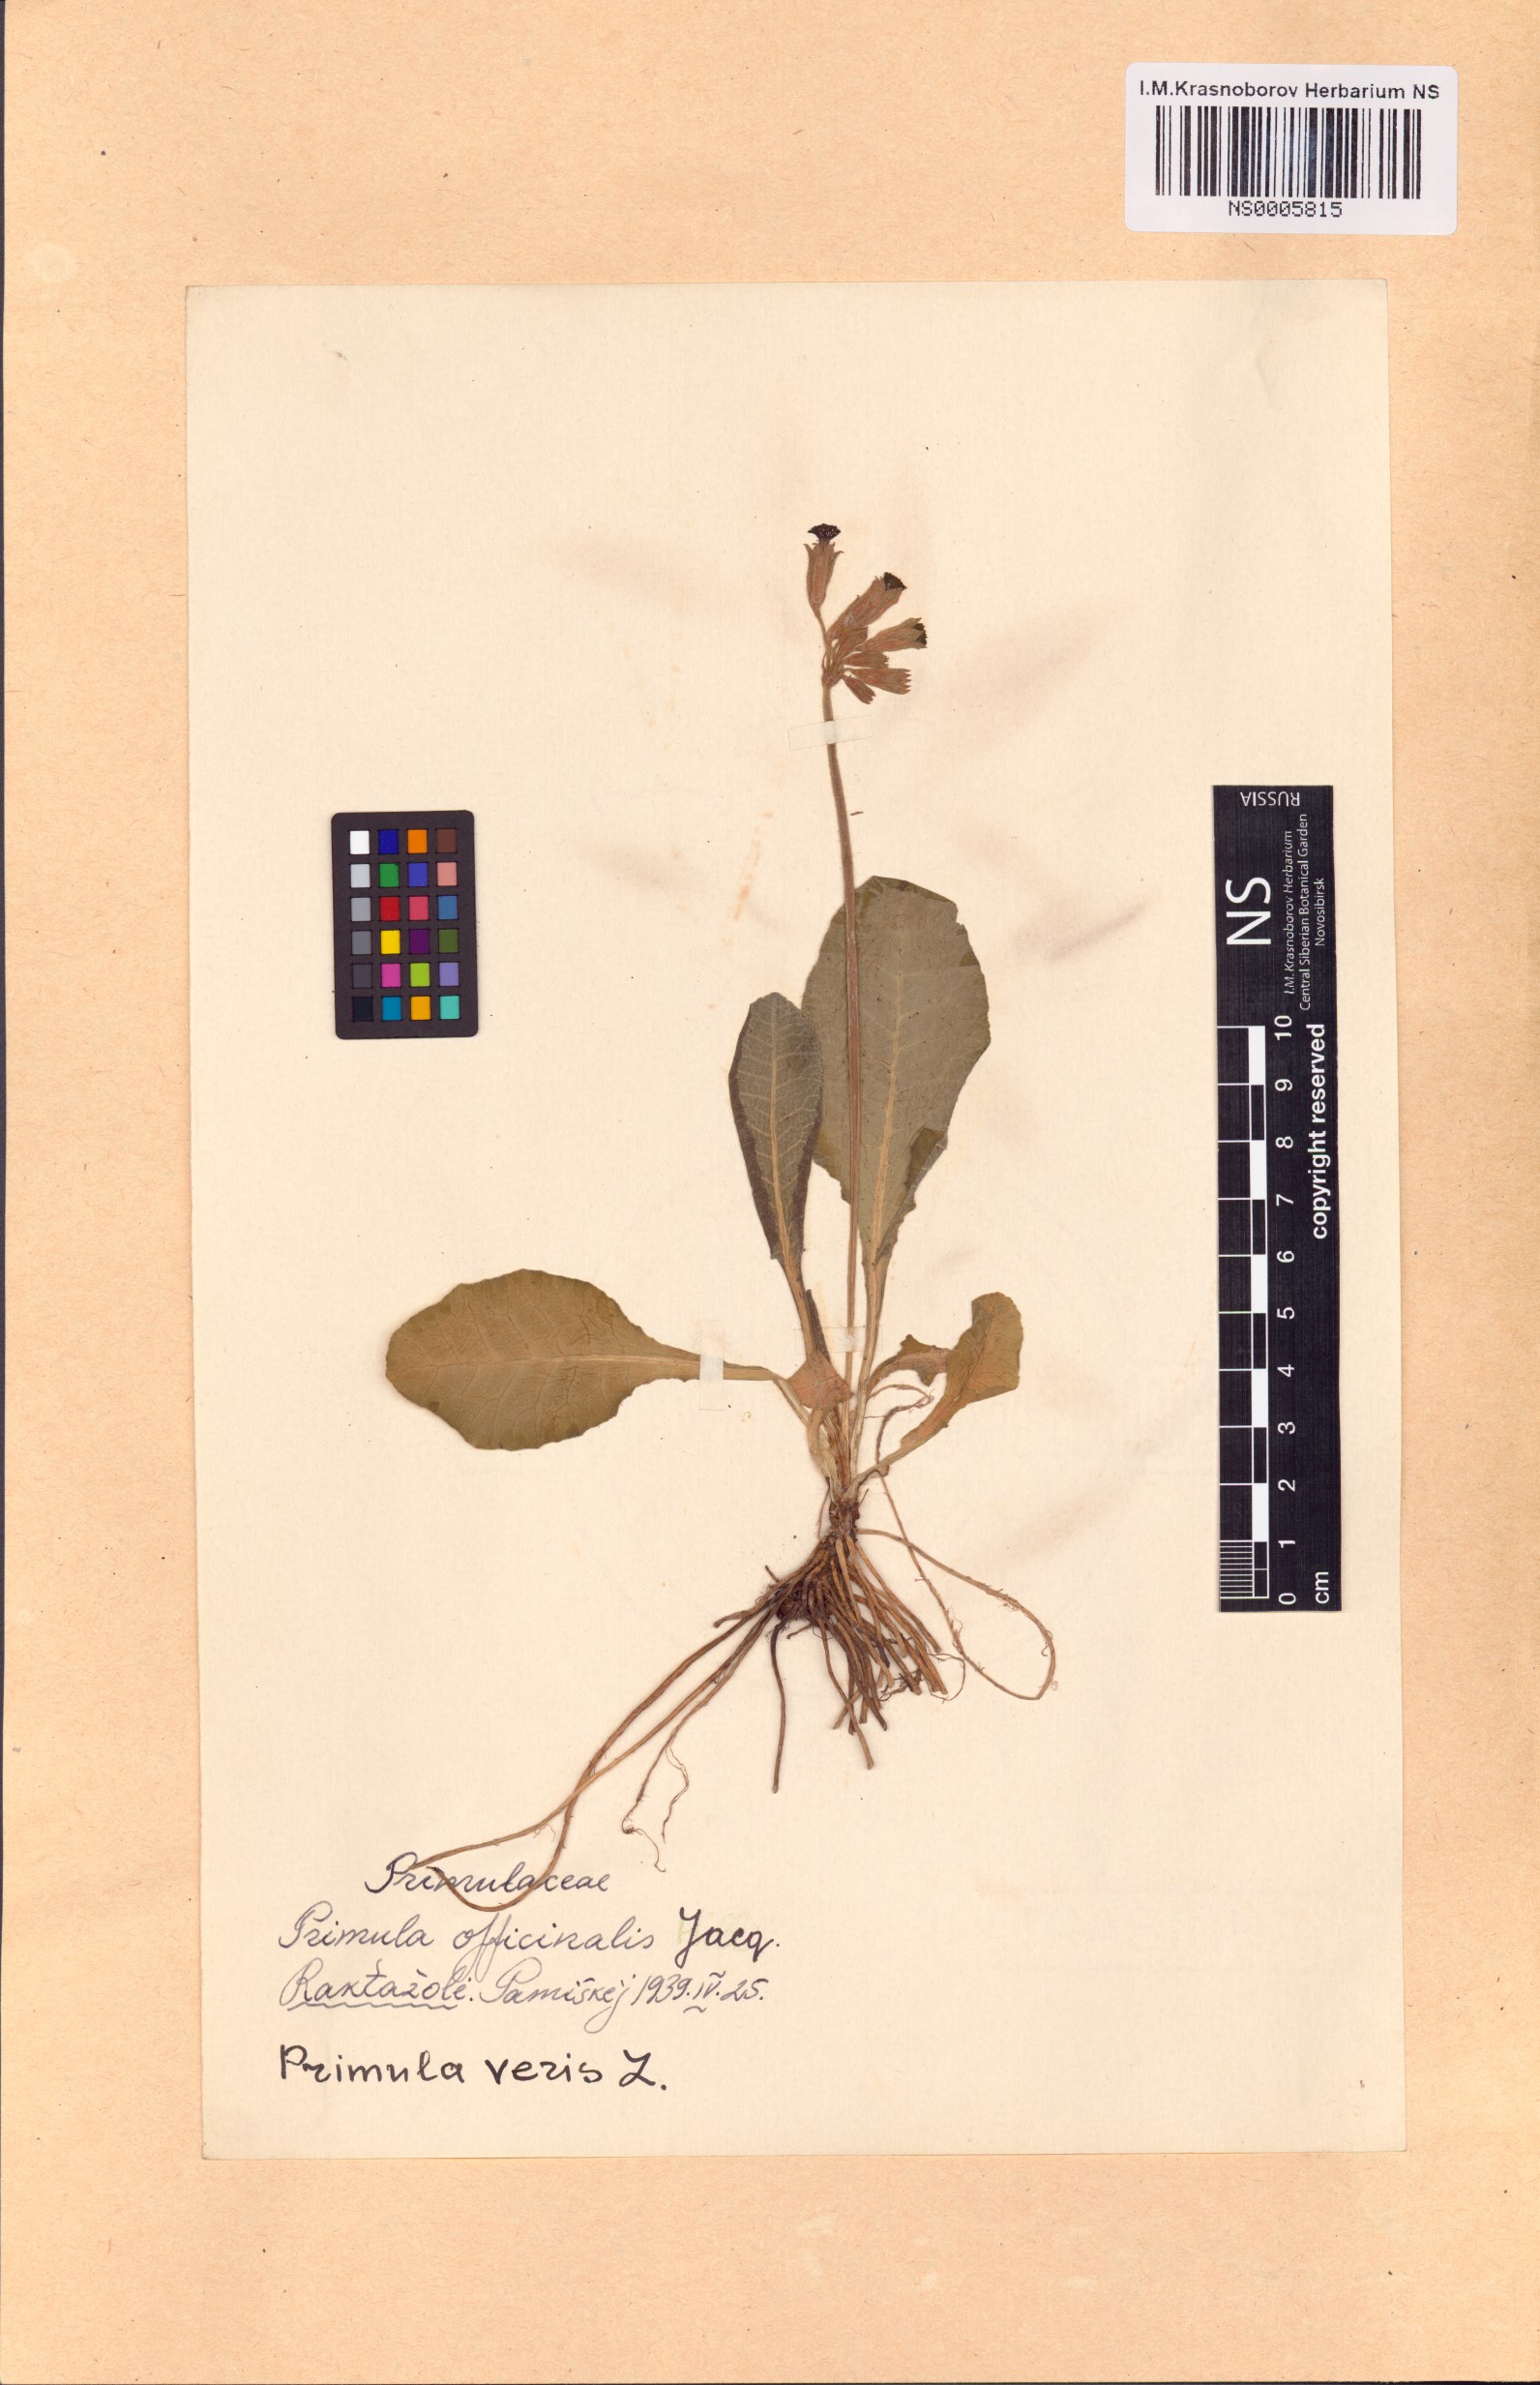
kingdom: Plantae
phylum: Tracheophyta
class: Magnoliopsida
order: Ericales
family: Primulaceae
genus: Primula
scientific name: Primula veris
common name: Cowslip
